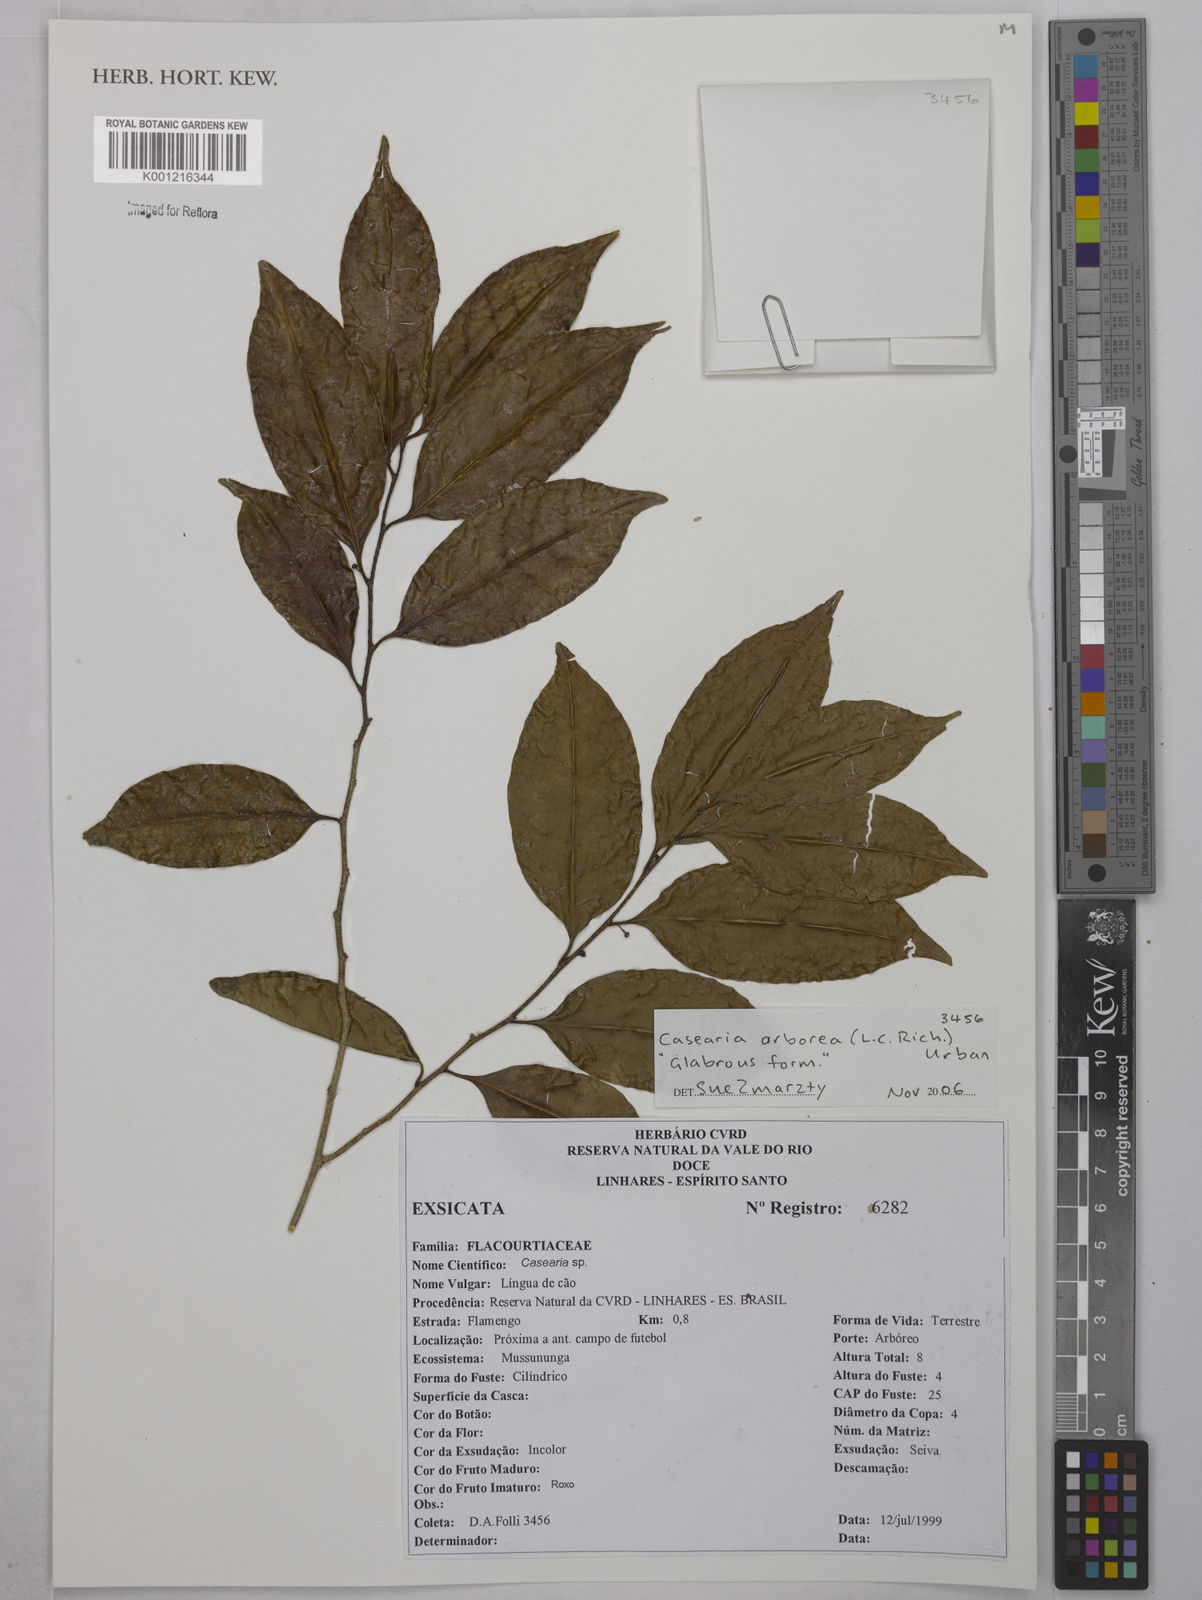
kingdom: Plantae
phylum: Tracheophyta
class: Magnoliopsida
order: Malpighiales
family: Salicaceae
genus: Casearia
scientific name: Casearia arborea
